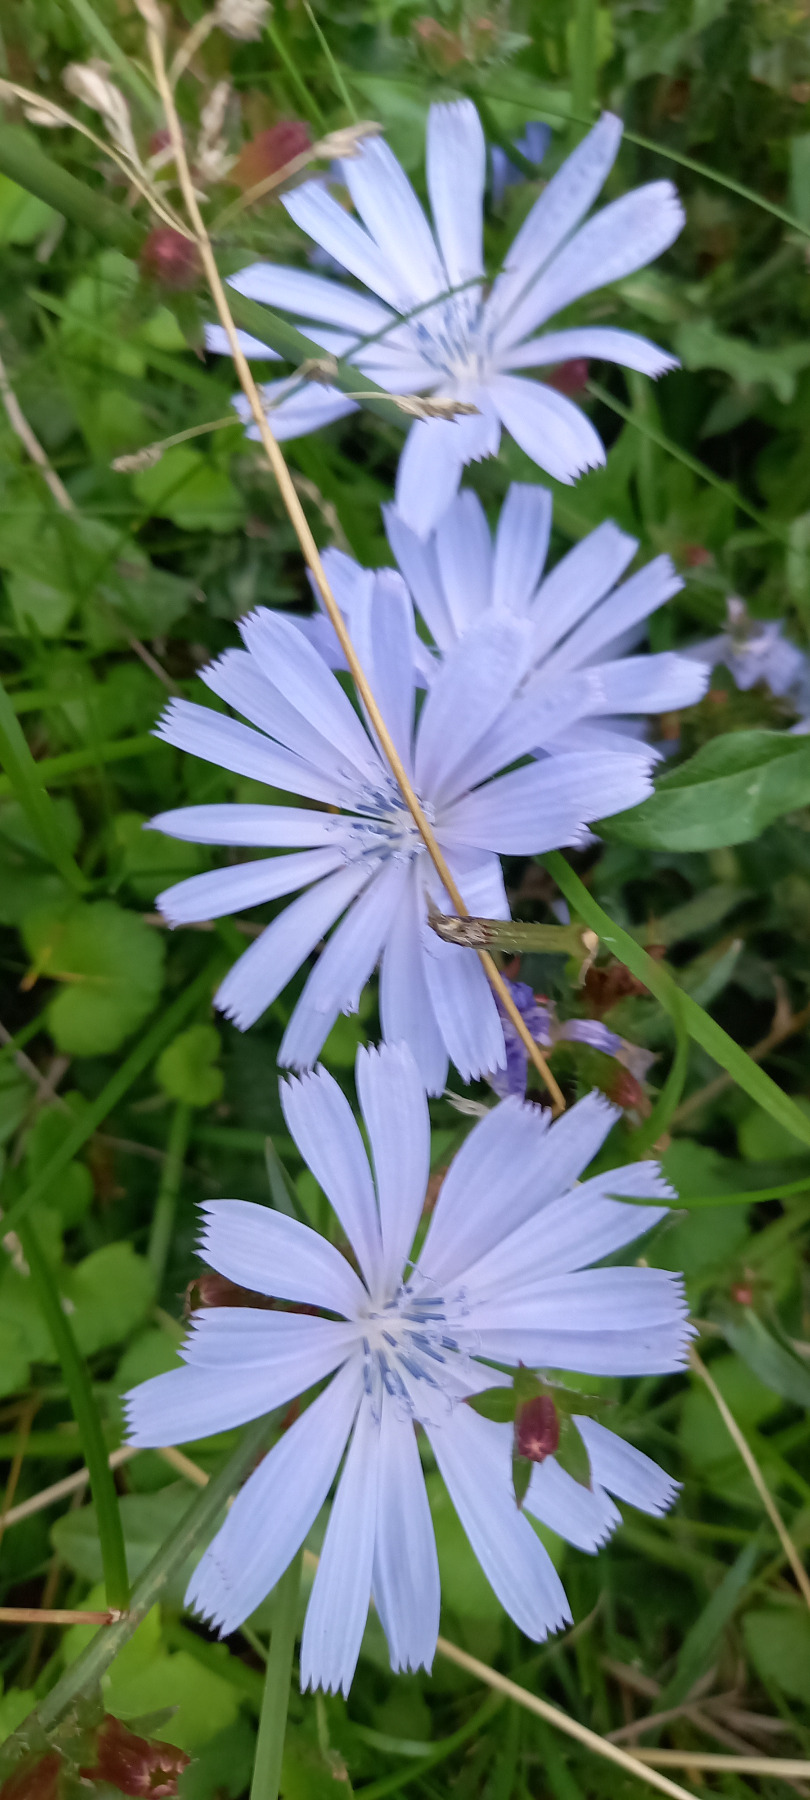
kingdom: Plantae
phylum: Tracheophyta
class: Magnoliopsida
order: Asterales
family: Asteraceae
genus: Cichorium
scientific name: Cichorium intybus
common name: Cikorie
